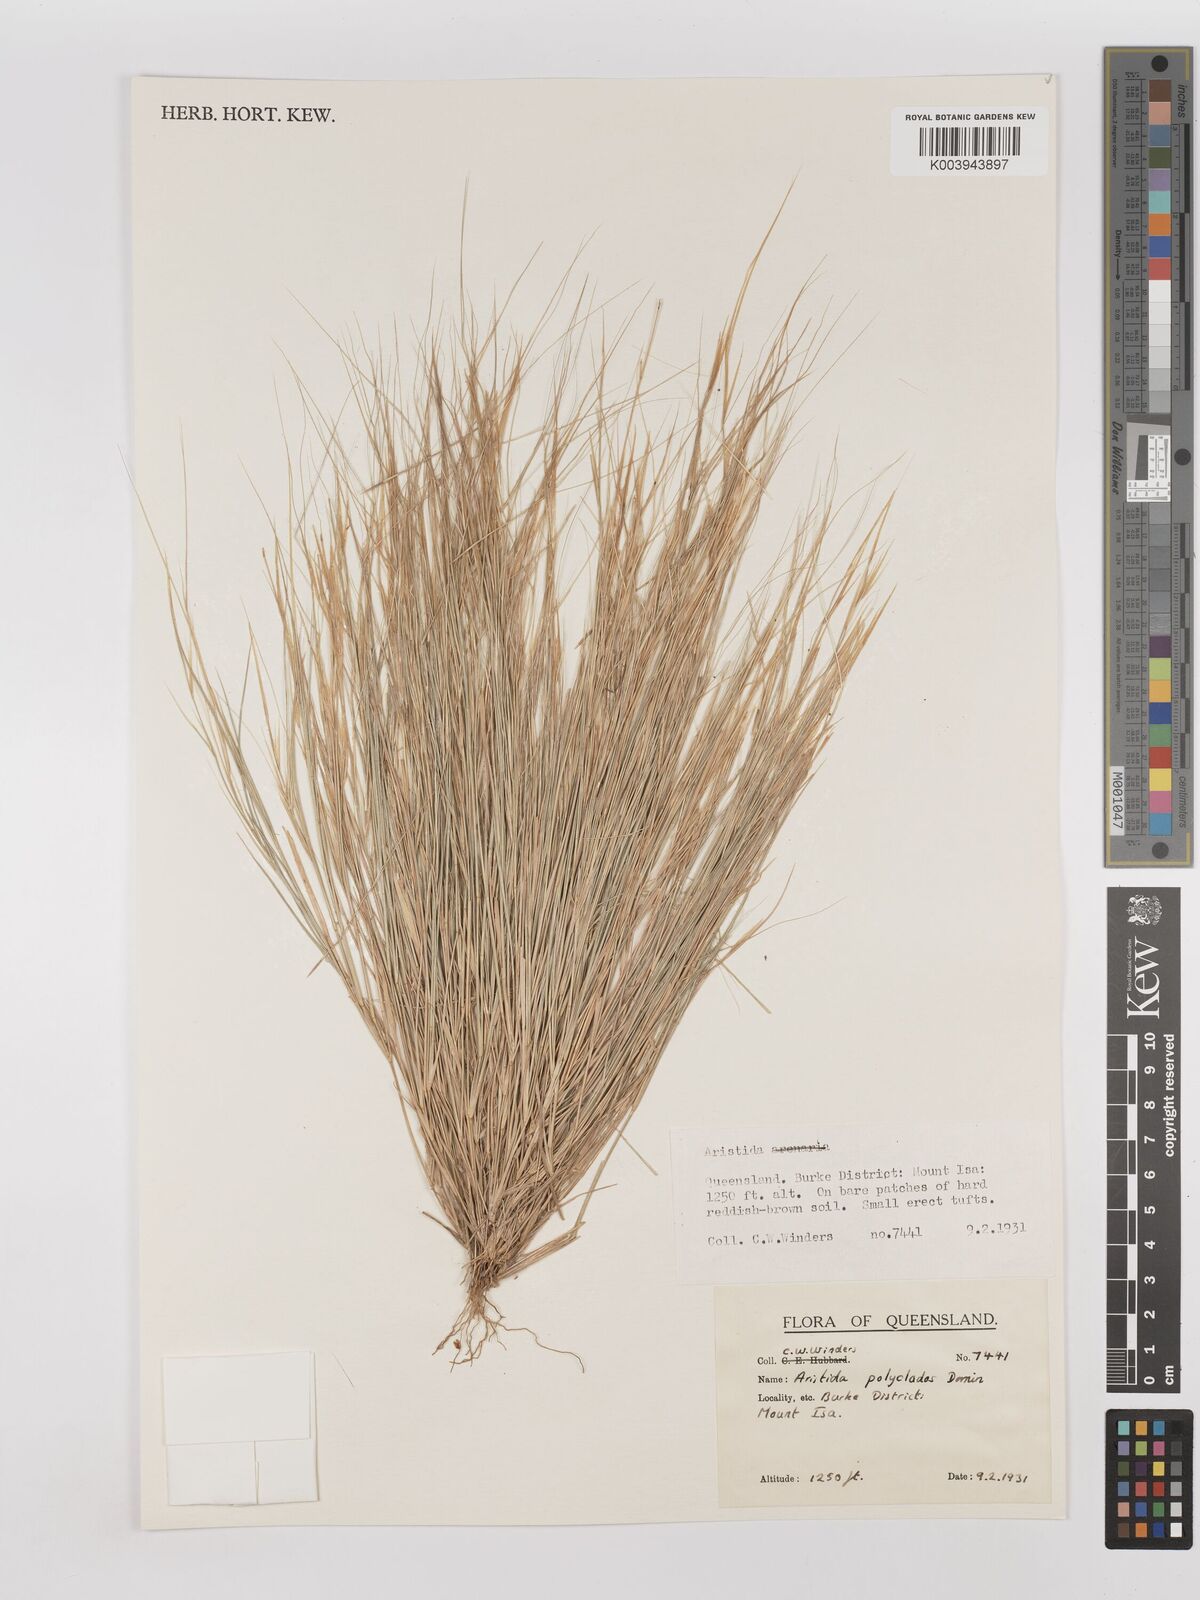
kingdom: Plantae
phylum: Tracheophyta
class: Liliopsida
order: Poales
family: Poaceae
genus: Aristida
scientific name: Aristida polyclados
